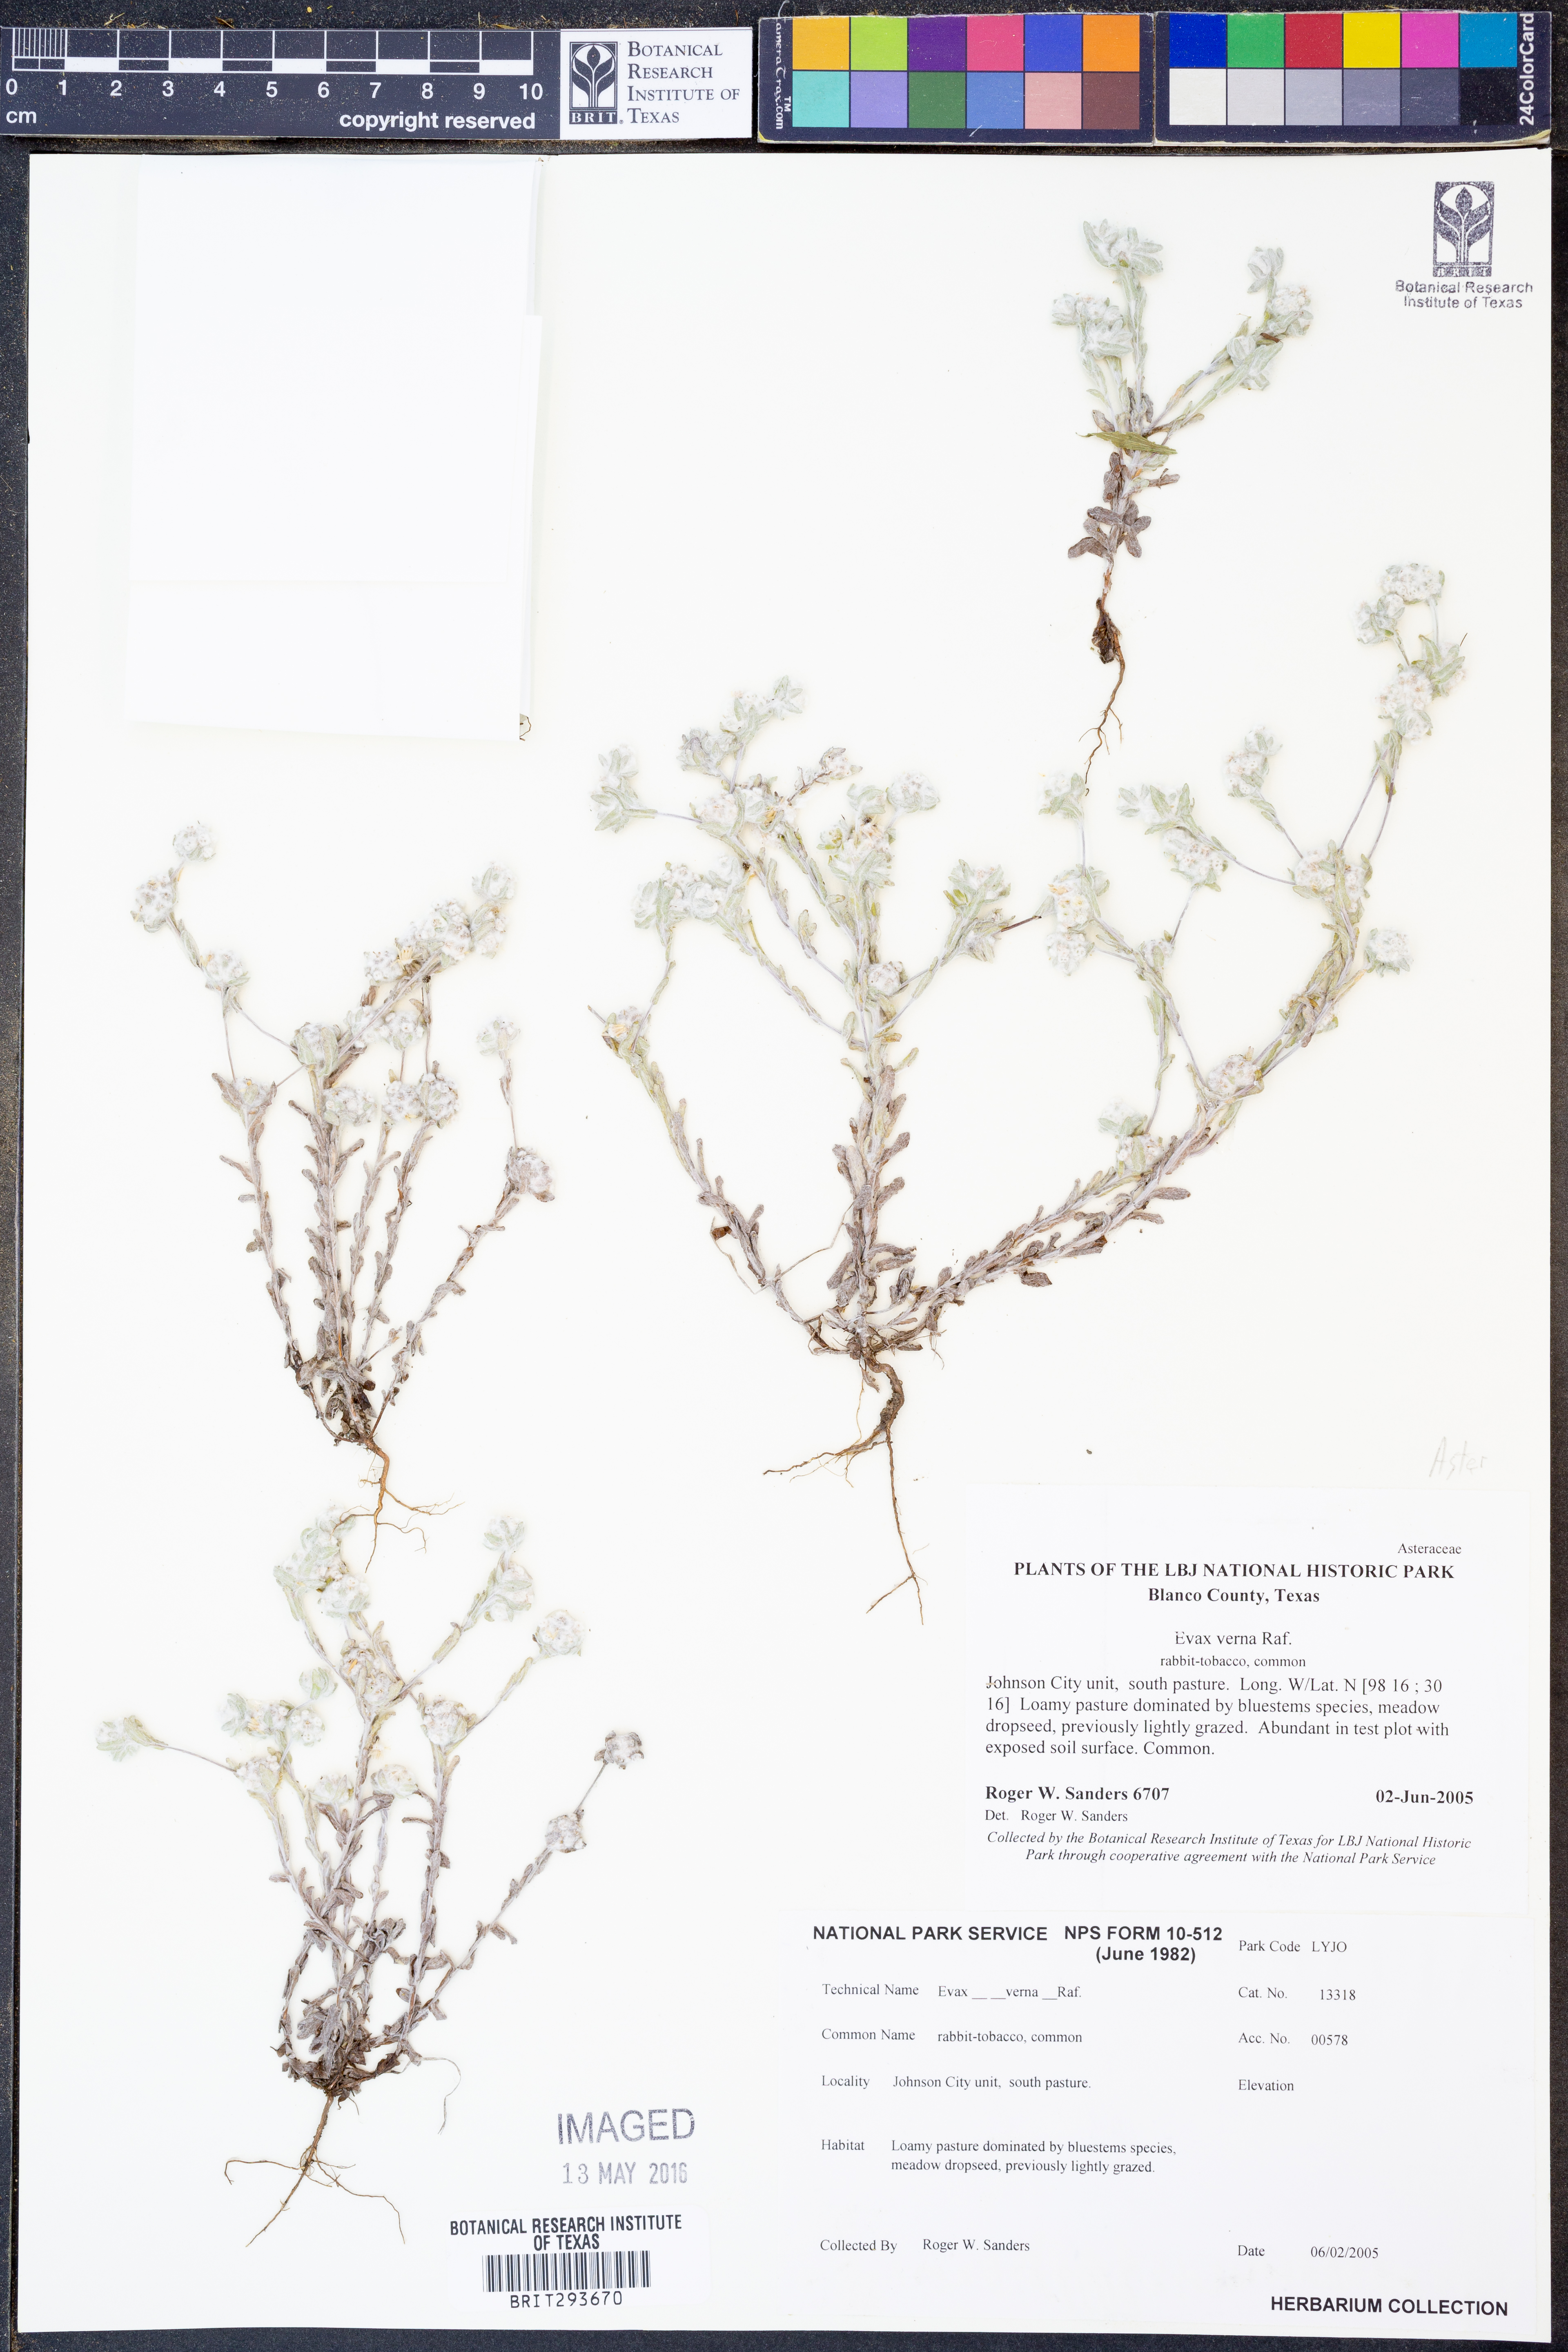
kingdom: Plantae
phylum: Tracheophyta
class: Magnoliopsida
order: Asterales
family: Asteraceae
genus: Diaperia
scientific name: Diaperia verna
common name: Many-stem rabbit-tobacco
